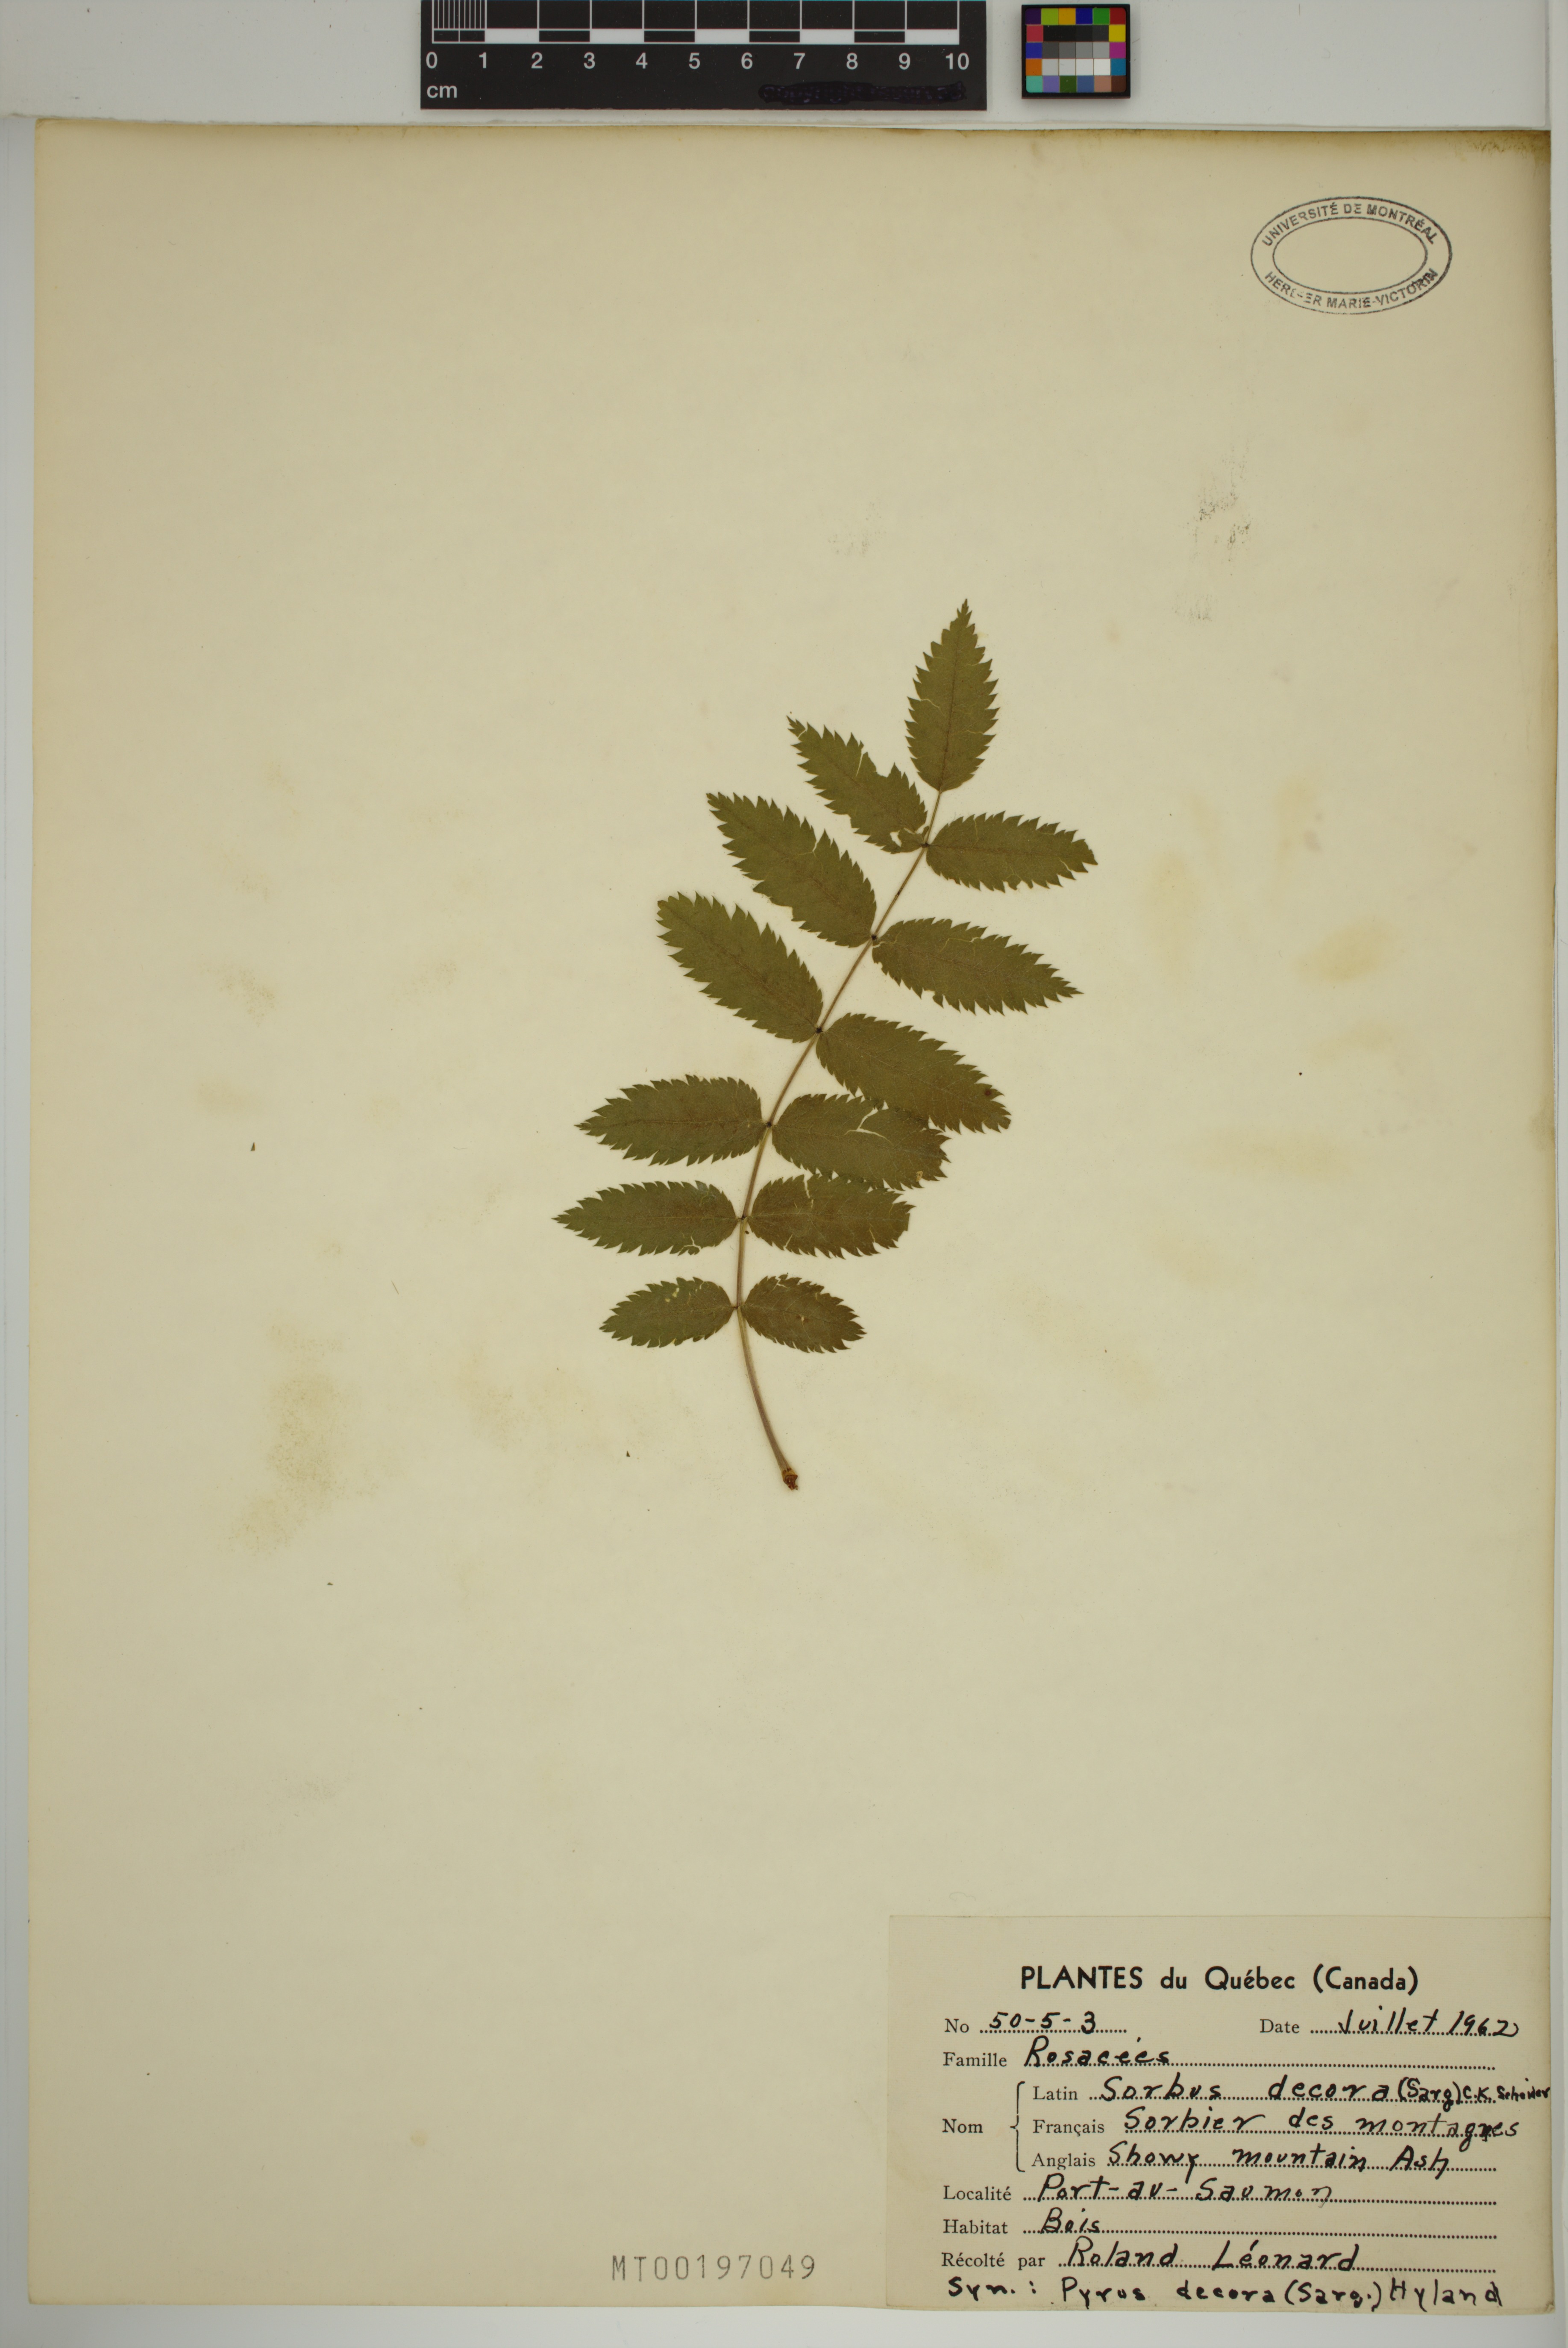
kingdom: Plantae
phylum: Tracheophyta
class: Magnoliopsida
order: Rosales
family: Rosaceae
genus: Sorbus
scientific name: Sorbus decora
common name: Northern mountain-ash
